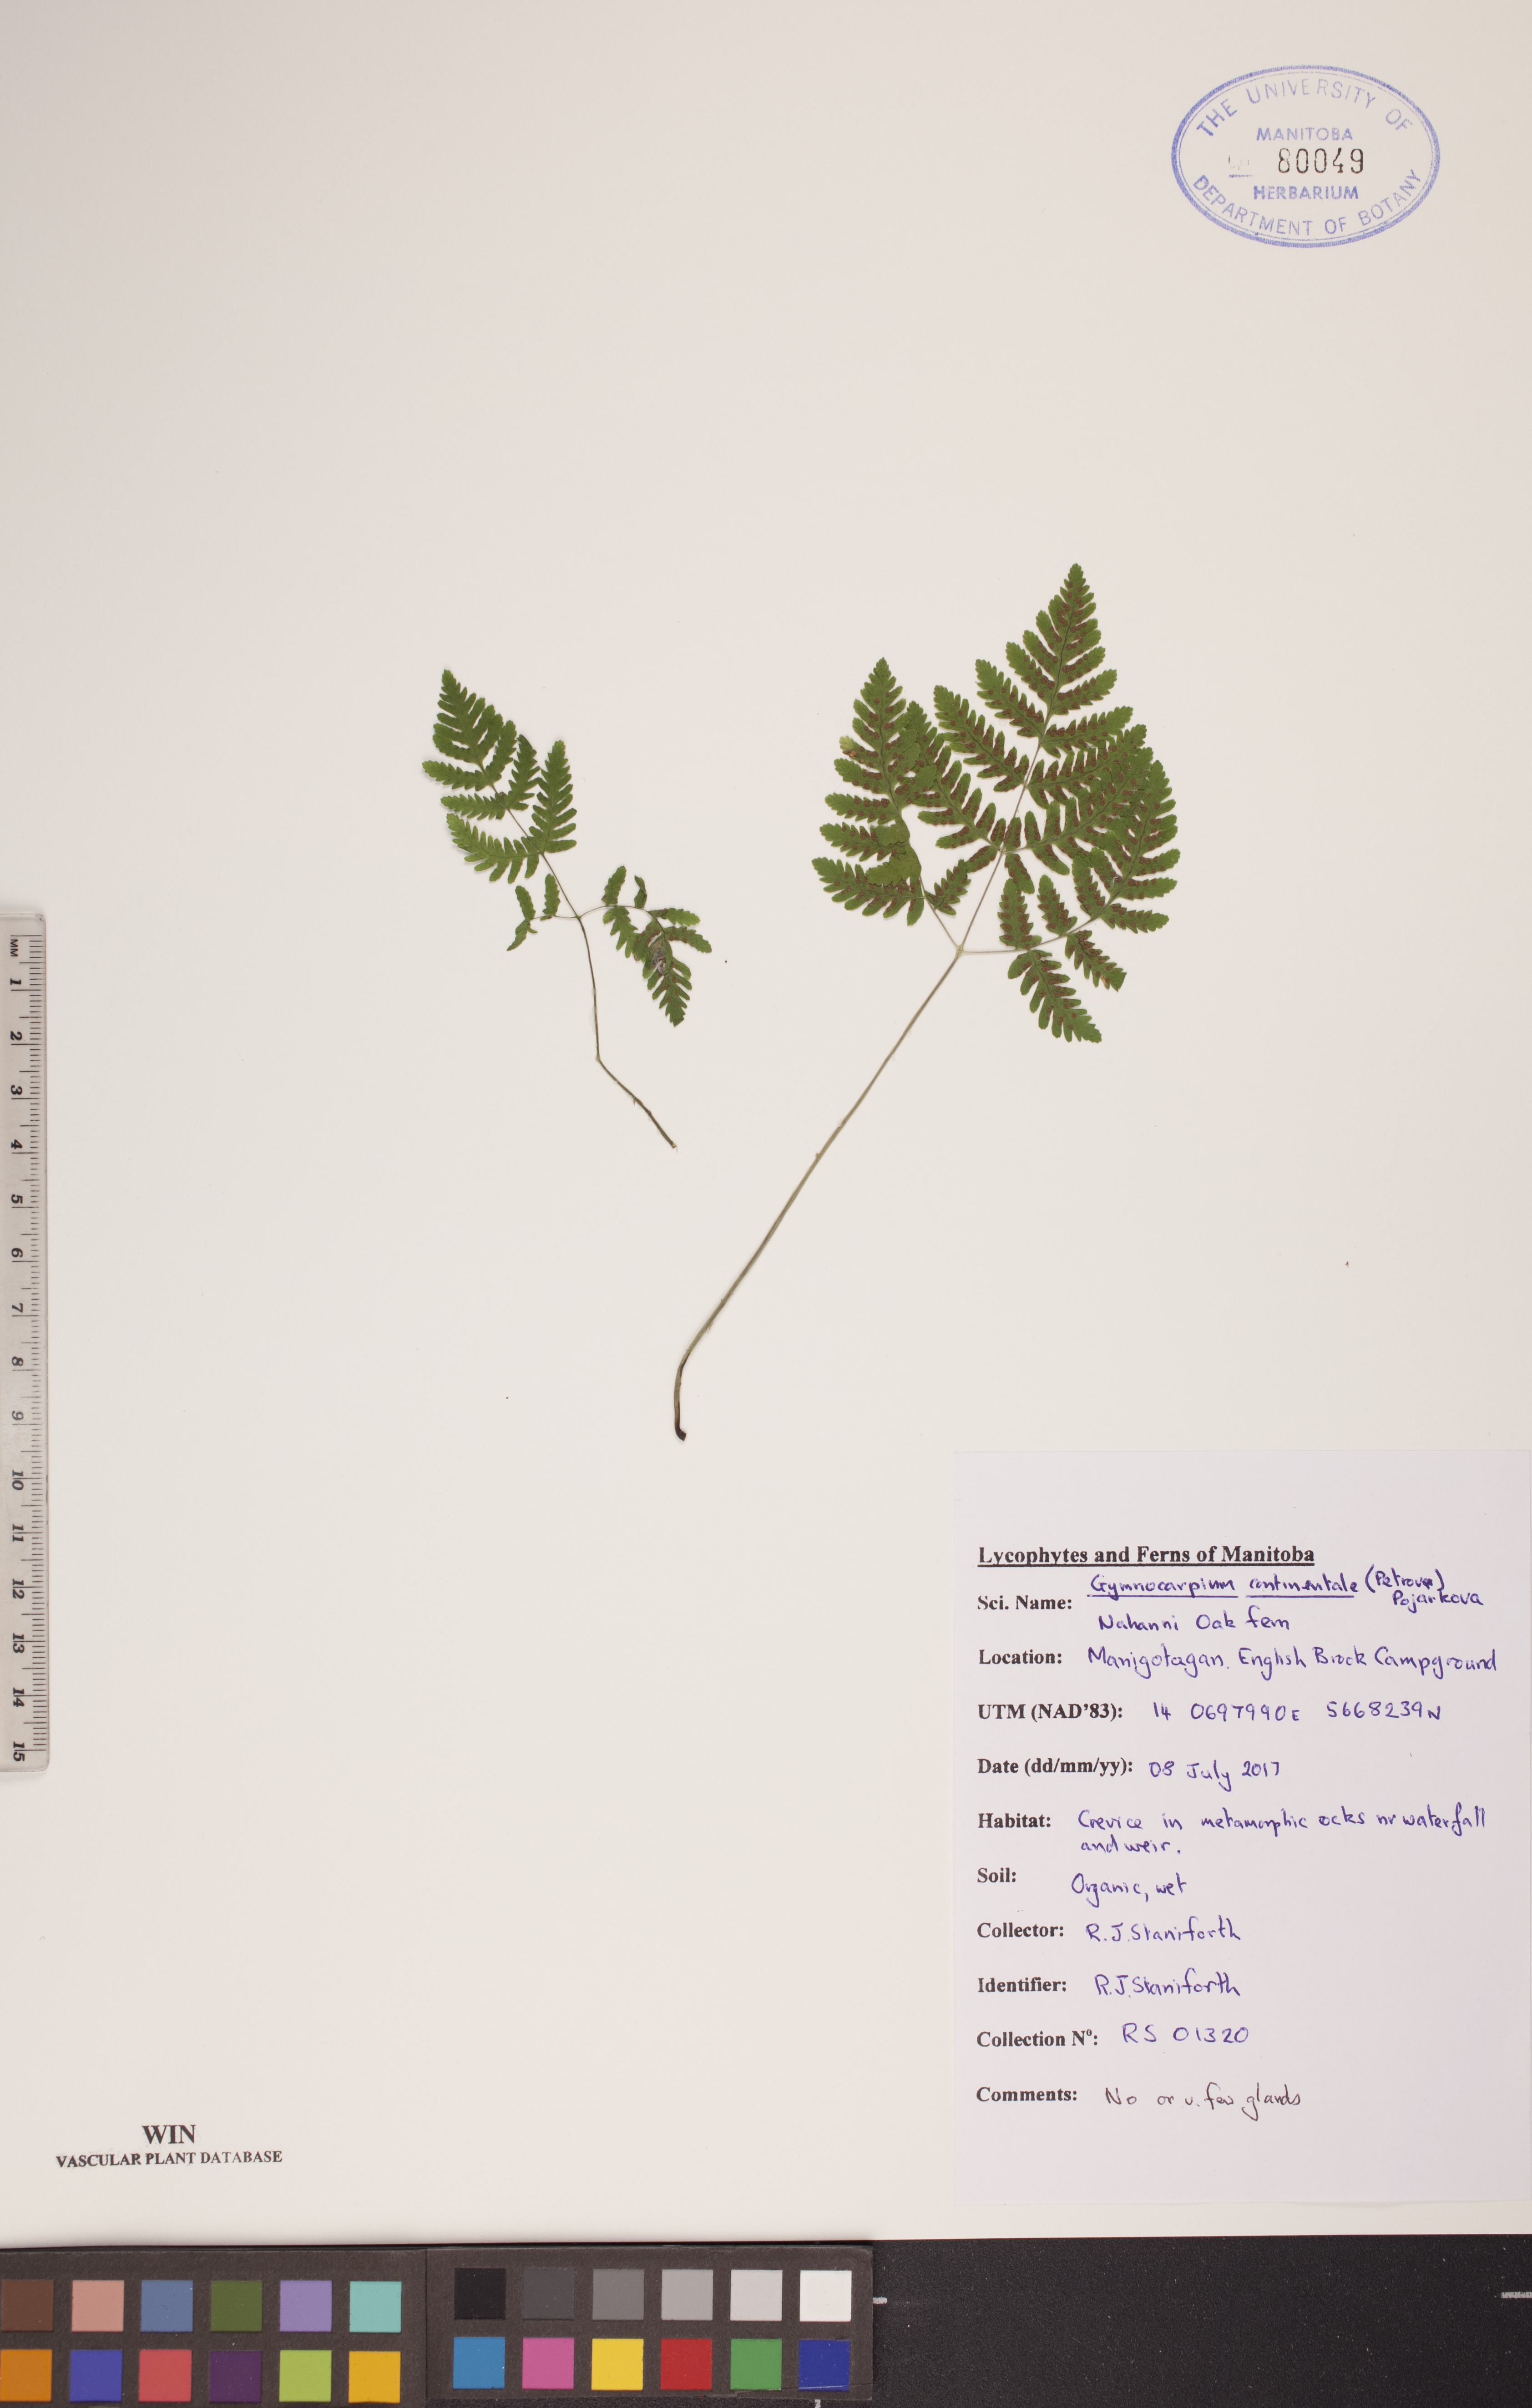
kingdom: Plantae
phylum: Tracheophyta
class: Polypodiopsida
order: Polypodiales
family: Cystopteridaceae
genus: Gymnocarpium
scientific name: Gymnocarpium continentale
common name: Asian oak fern
